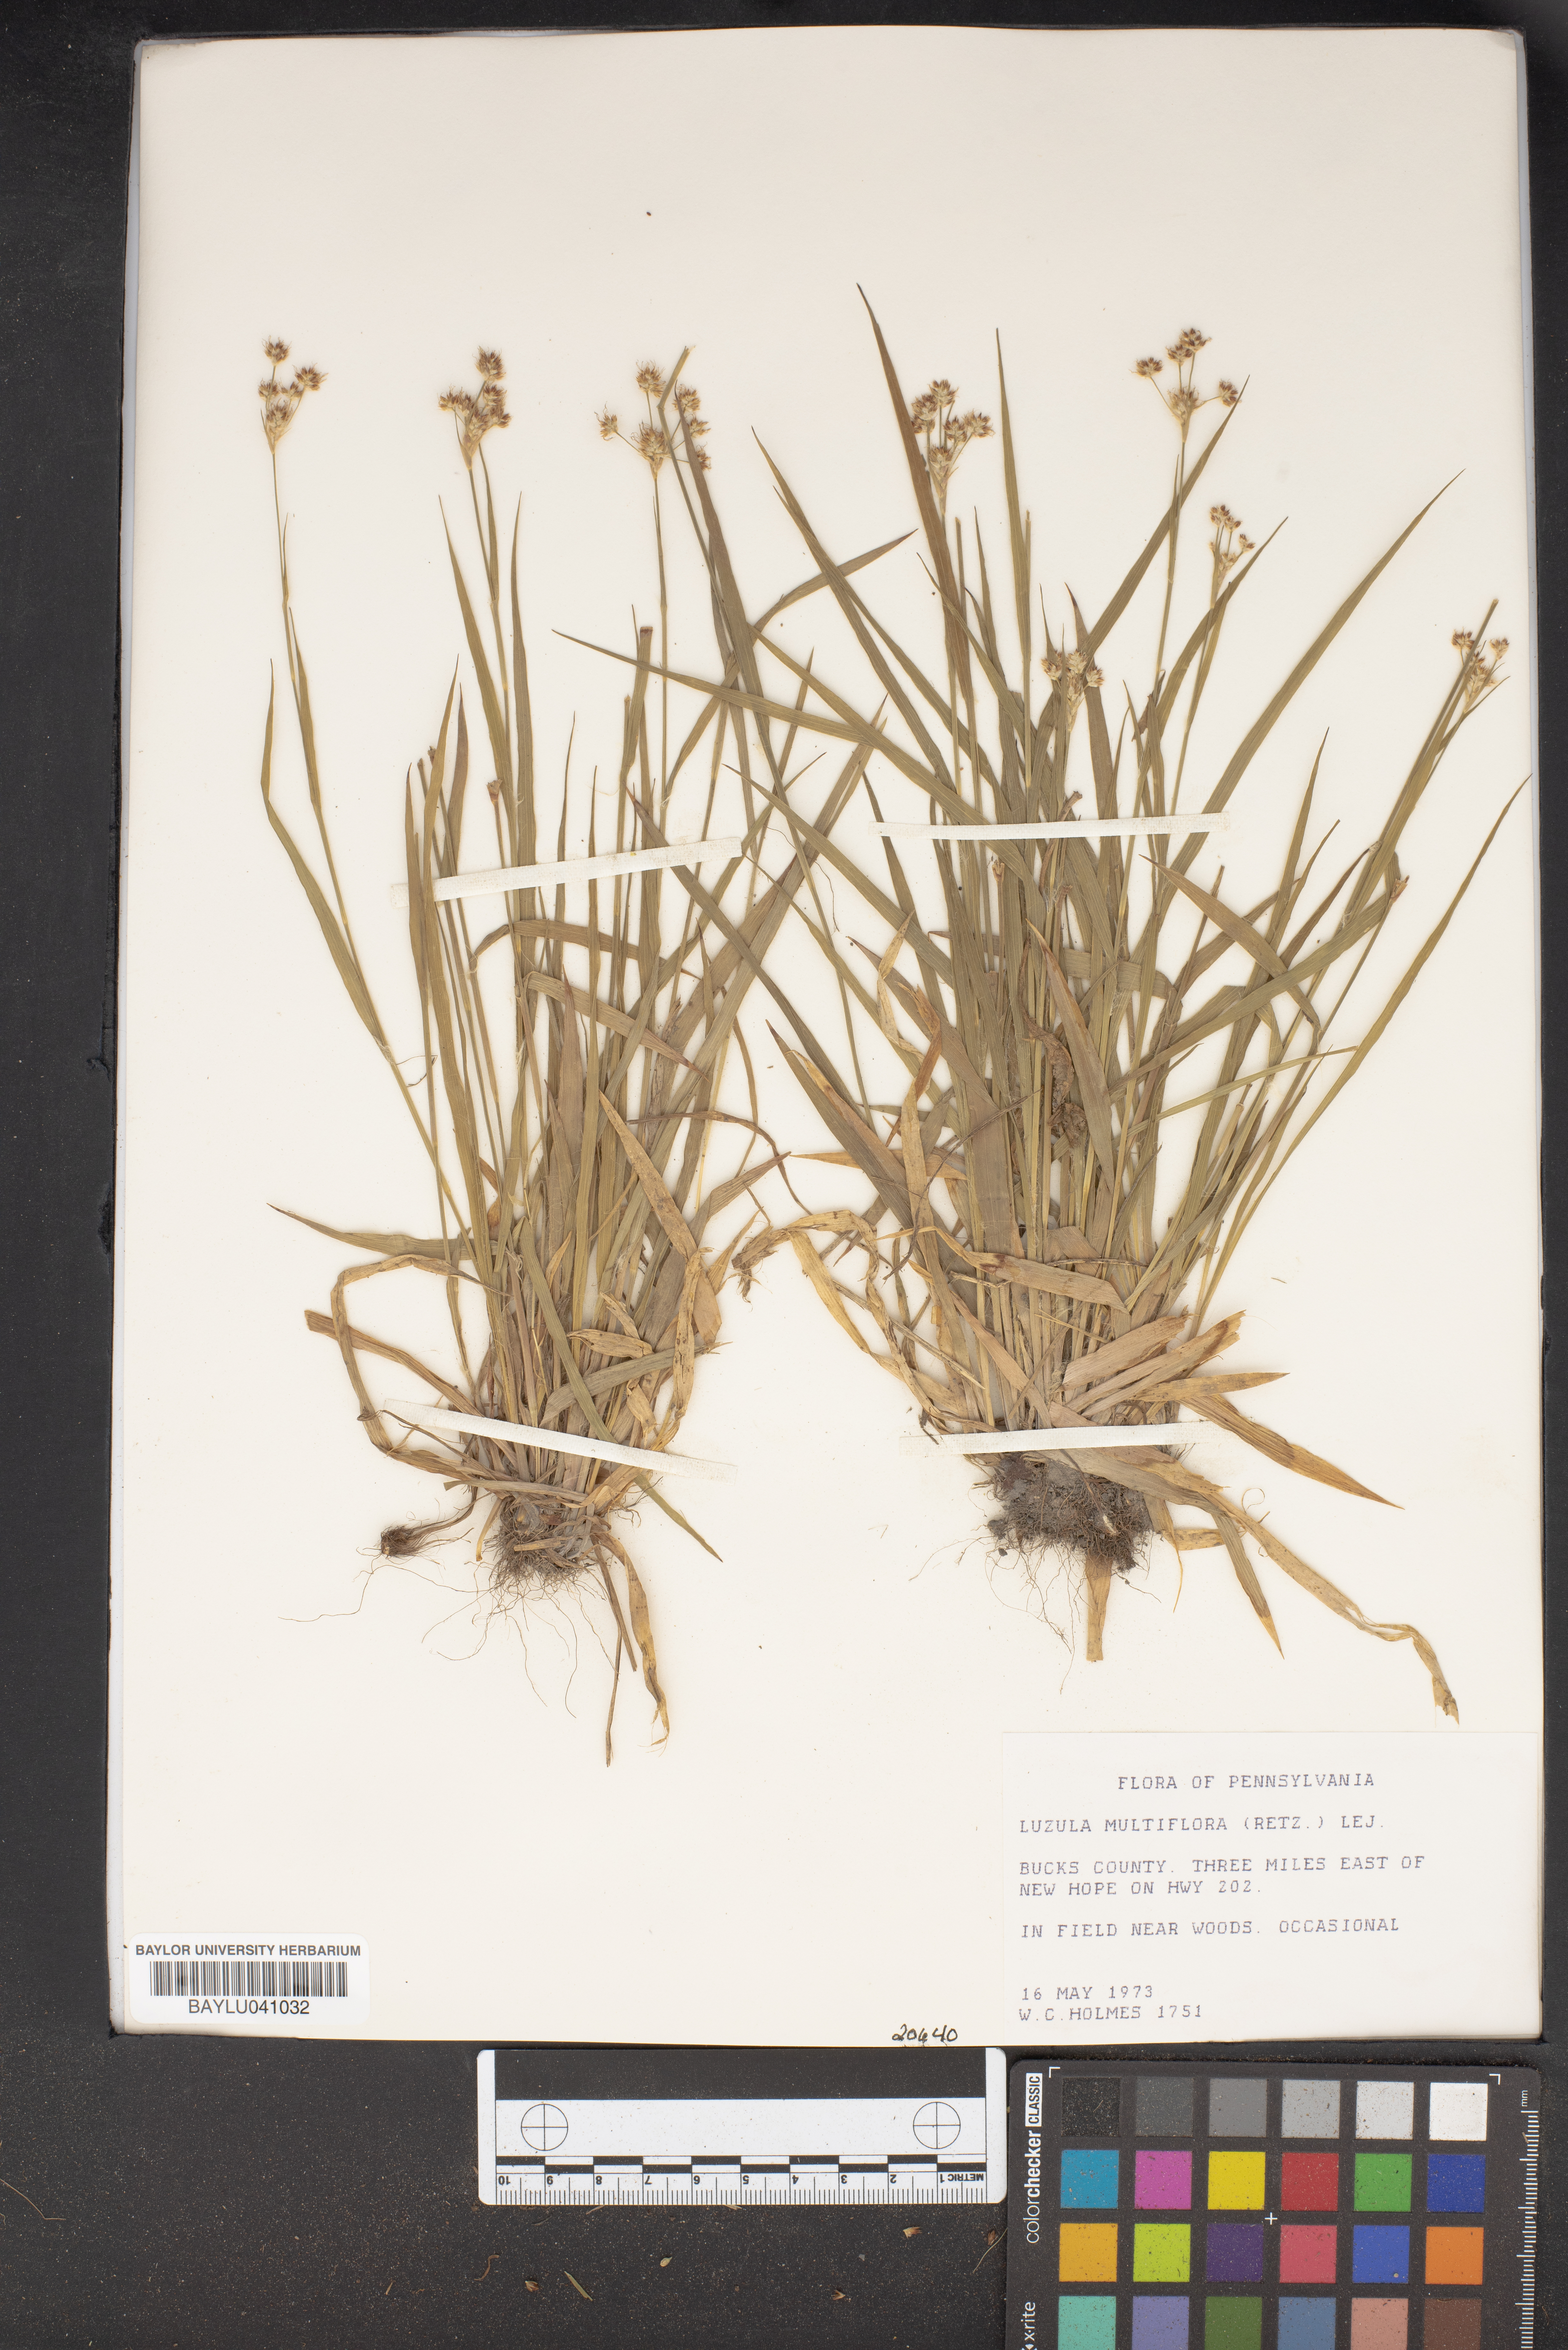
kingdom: Plantae
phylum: Tracheophyta
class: Liliopsida
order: Poales
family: Juncaceae
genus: Luzula
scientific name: Luzula multiflora
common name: Heath wood-rush
